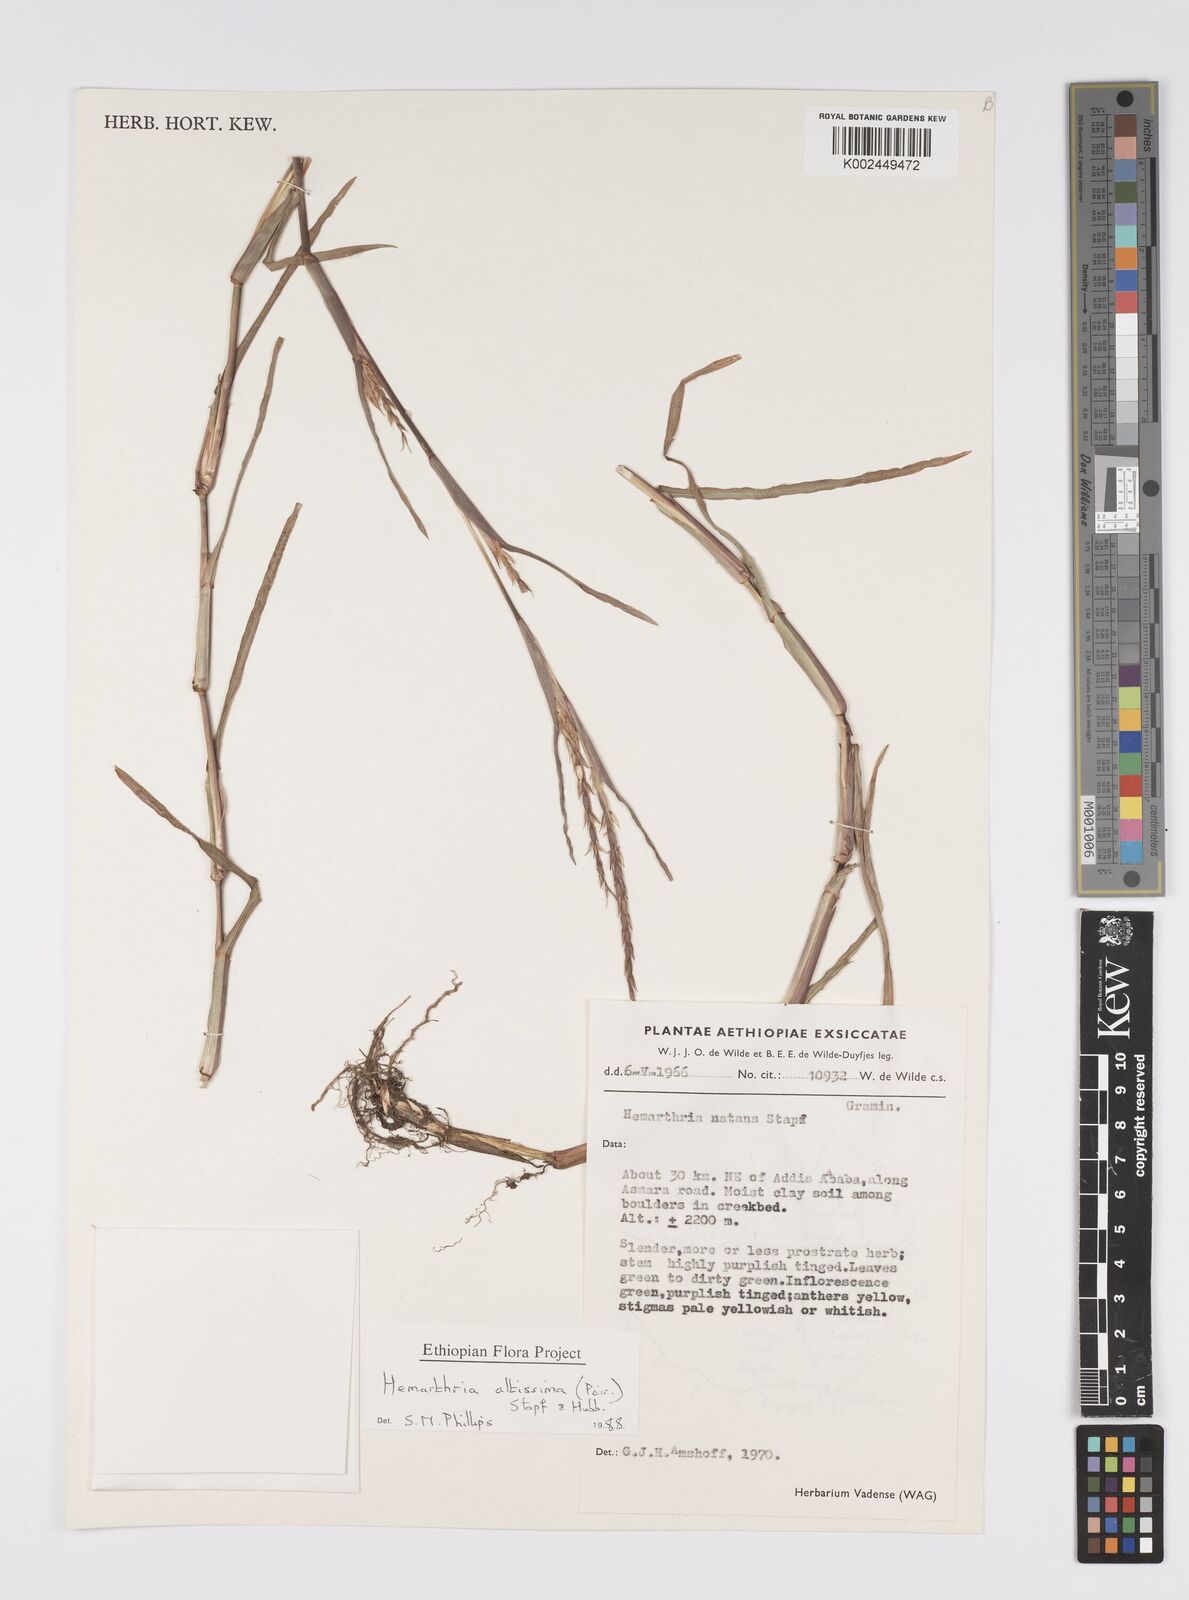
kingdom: Plantae
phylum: Tracheophyta
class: Liliopsida
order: Poales
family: Poaceae
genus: Hemarthria
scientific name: Hemarthria altissima
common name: African jointgrass
